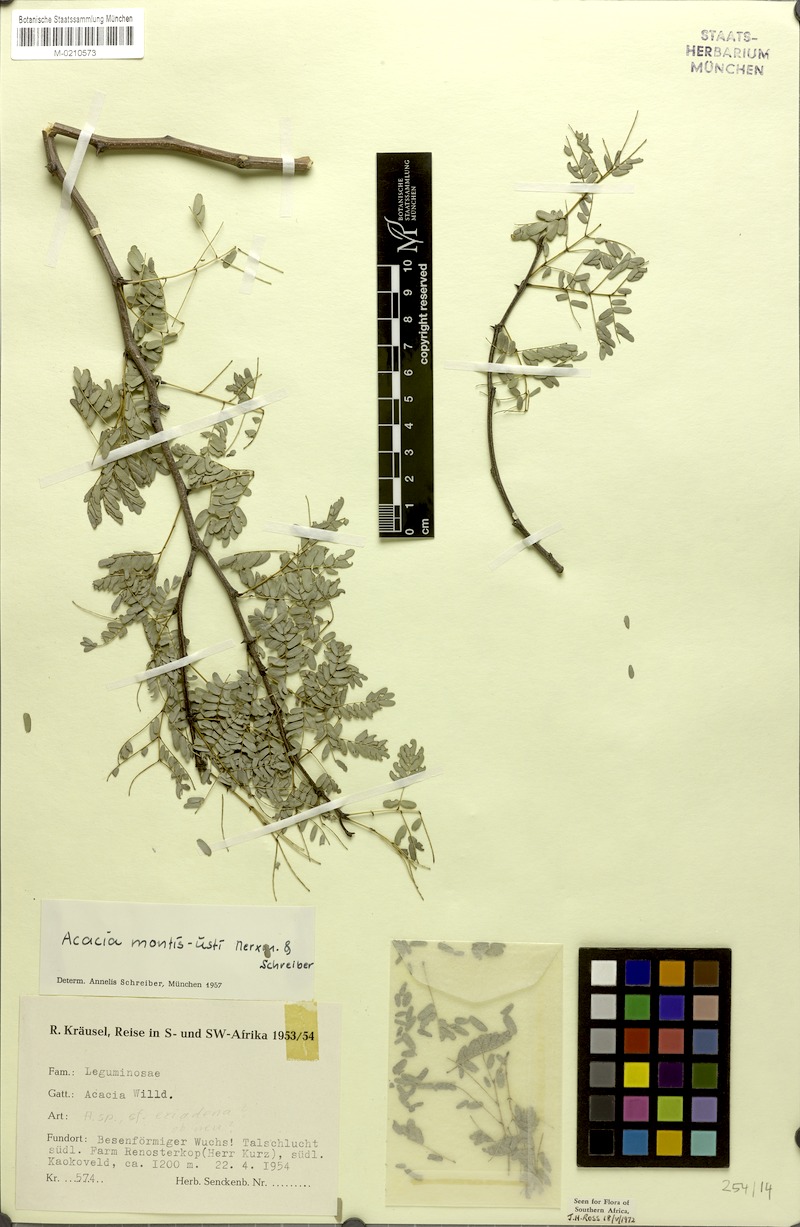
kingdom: Plantae
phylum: Tracheophyta
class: Magnoliopsida
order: Fabales
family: Fabaceae
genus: Senegalia
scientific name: Senegalia montis-usti
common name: Brandberg acacia
